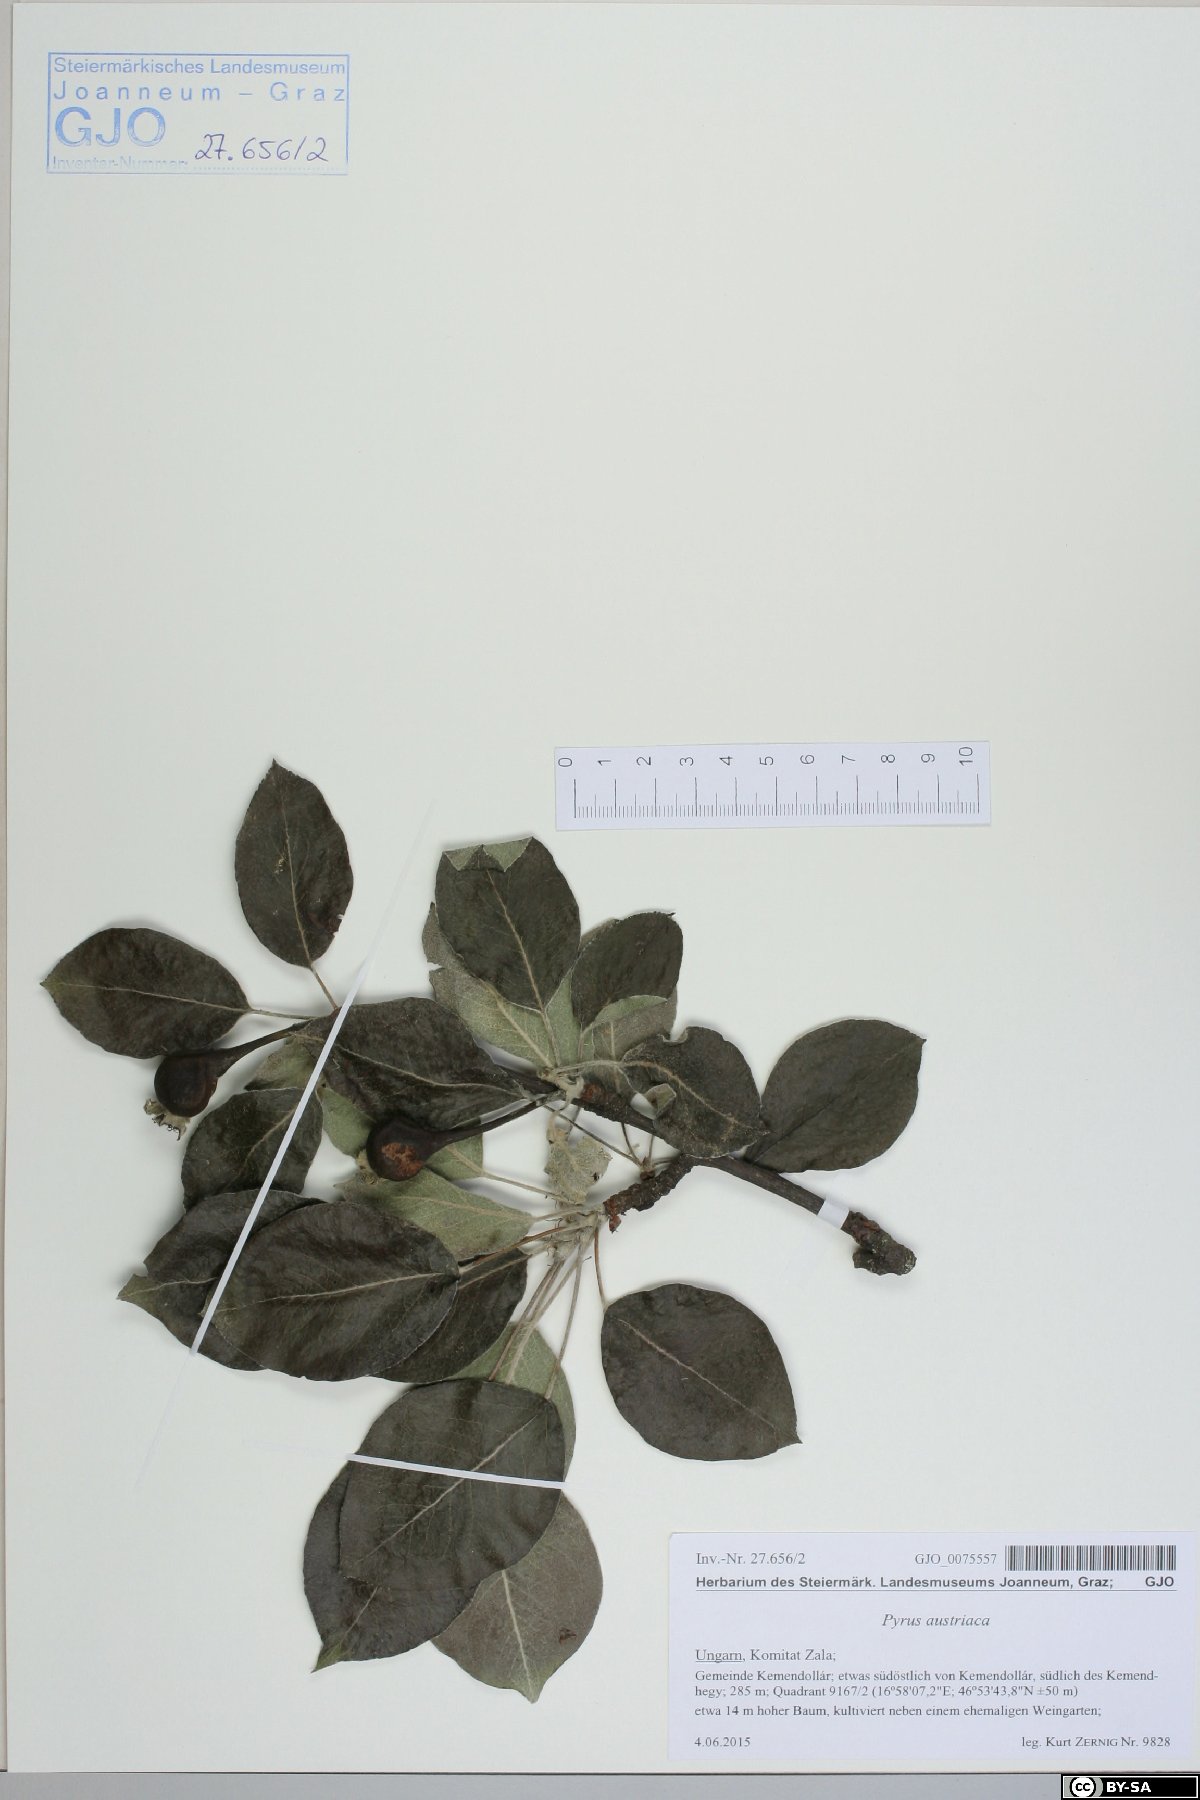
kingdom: Plantae
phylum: Tracheophyta
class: Magnoliopsida
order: Rosales
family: Rosaceae
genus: Pyrus
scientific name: Pyrus nivalis
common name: Snow pear
